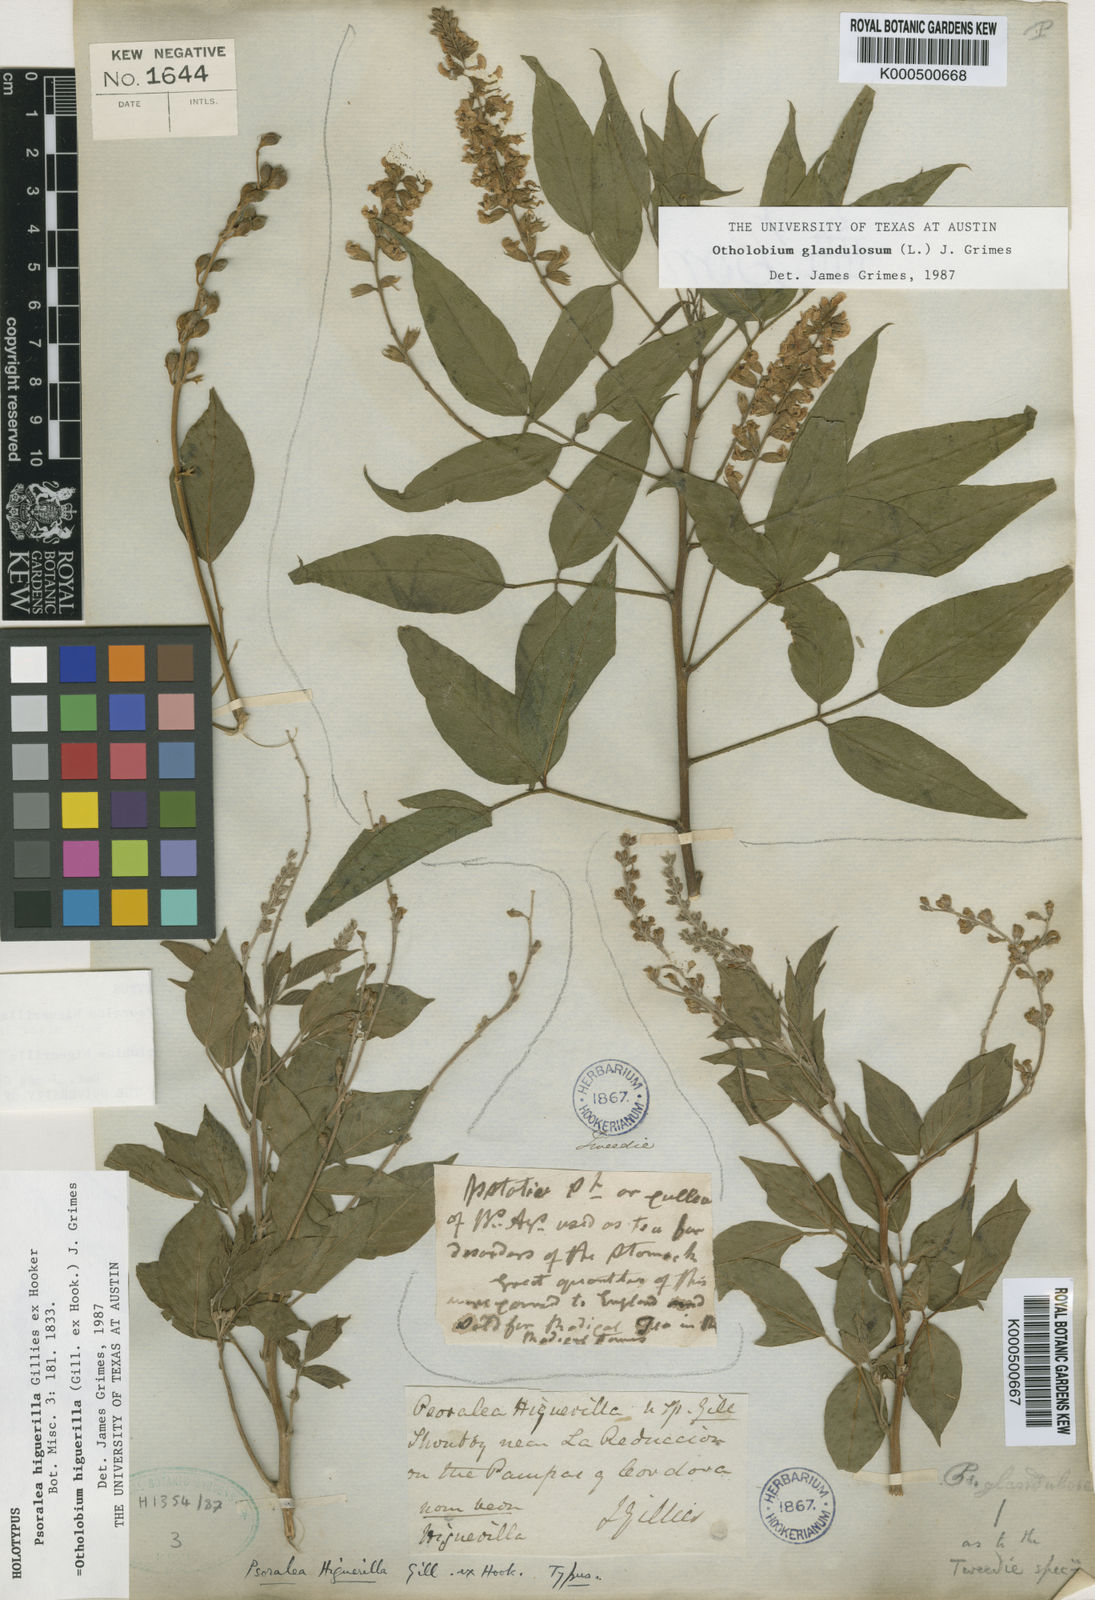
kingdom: Plantae
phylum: Tracheophyta
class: Magnoliopsida
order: Fabales
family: Fabaceae
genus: Psoralea
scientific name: Psoralea Otholobium higuerilla
